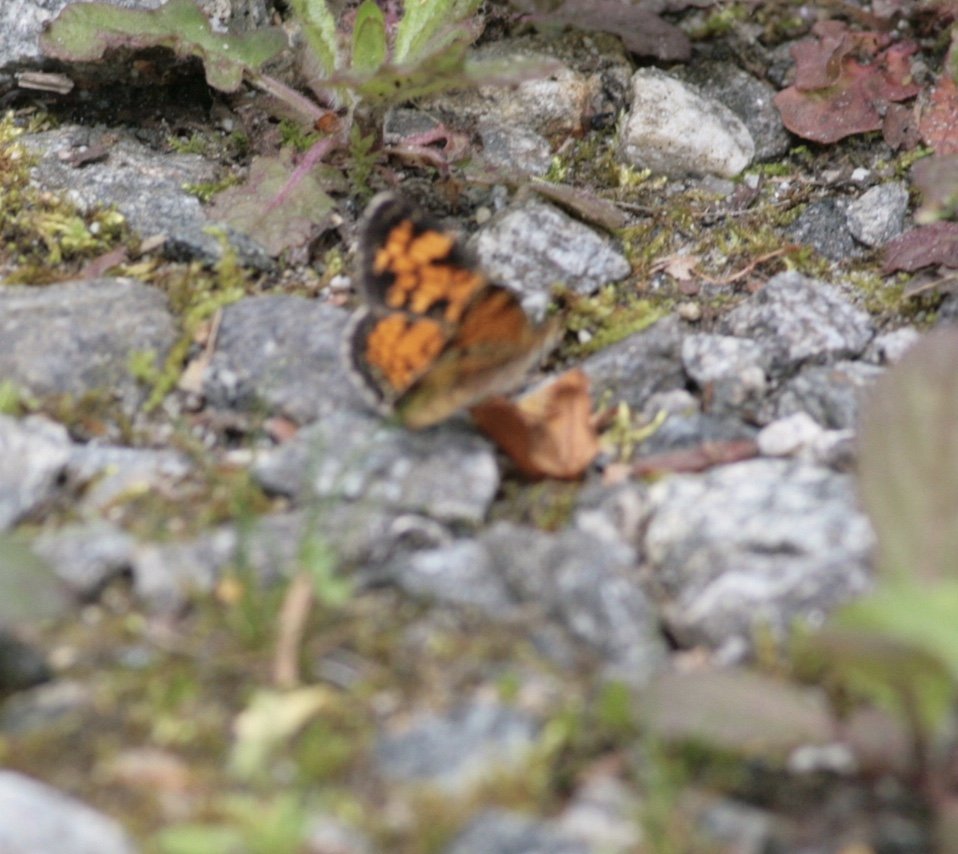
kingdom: Animalia
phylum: Arthropoda
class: Insecta
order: Lepidoptera
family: Nymphalidae
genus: Phyciodes
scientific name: Phyciodes tharos
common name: Pearl Crescent
